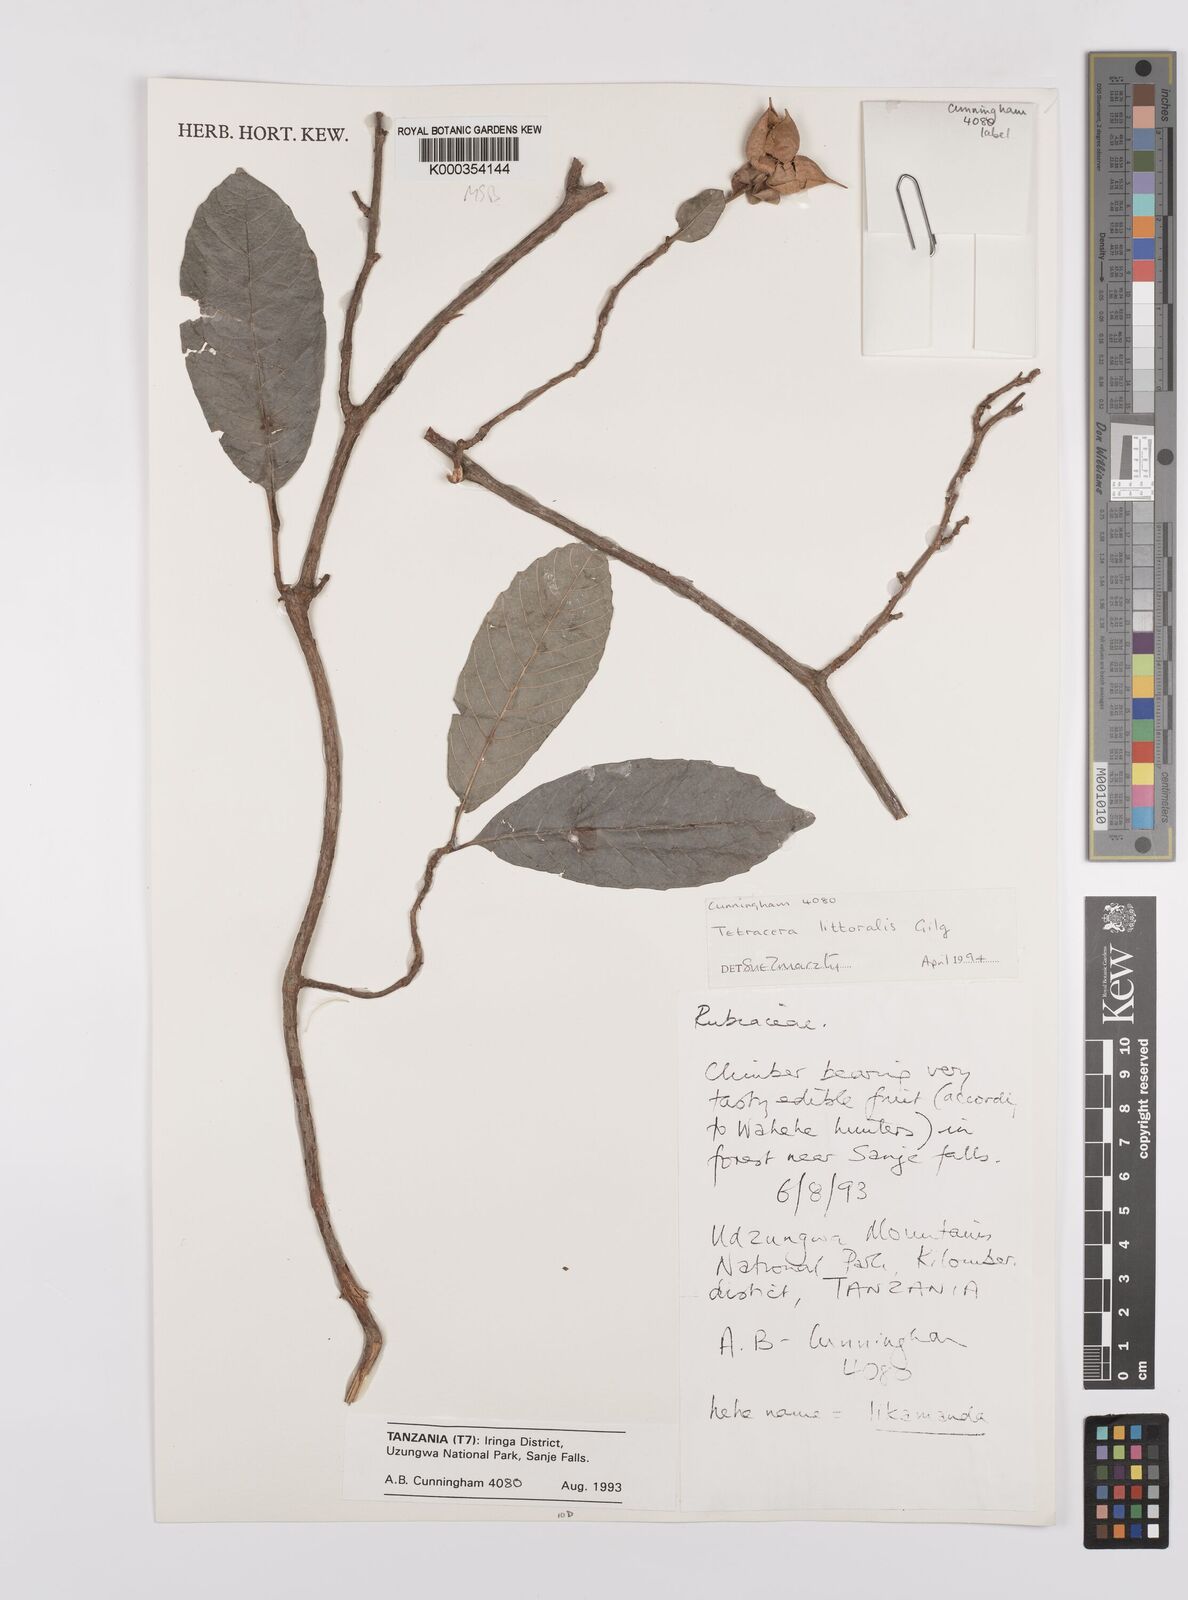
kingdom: Plantae
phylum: Tracheophyta
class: Magnoliopsida
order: Dilleniales
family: Dilleniaceae
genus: Tetracera
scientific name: Tetracera litoralis
